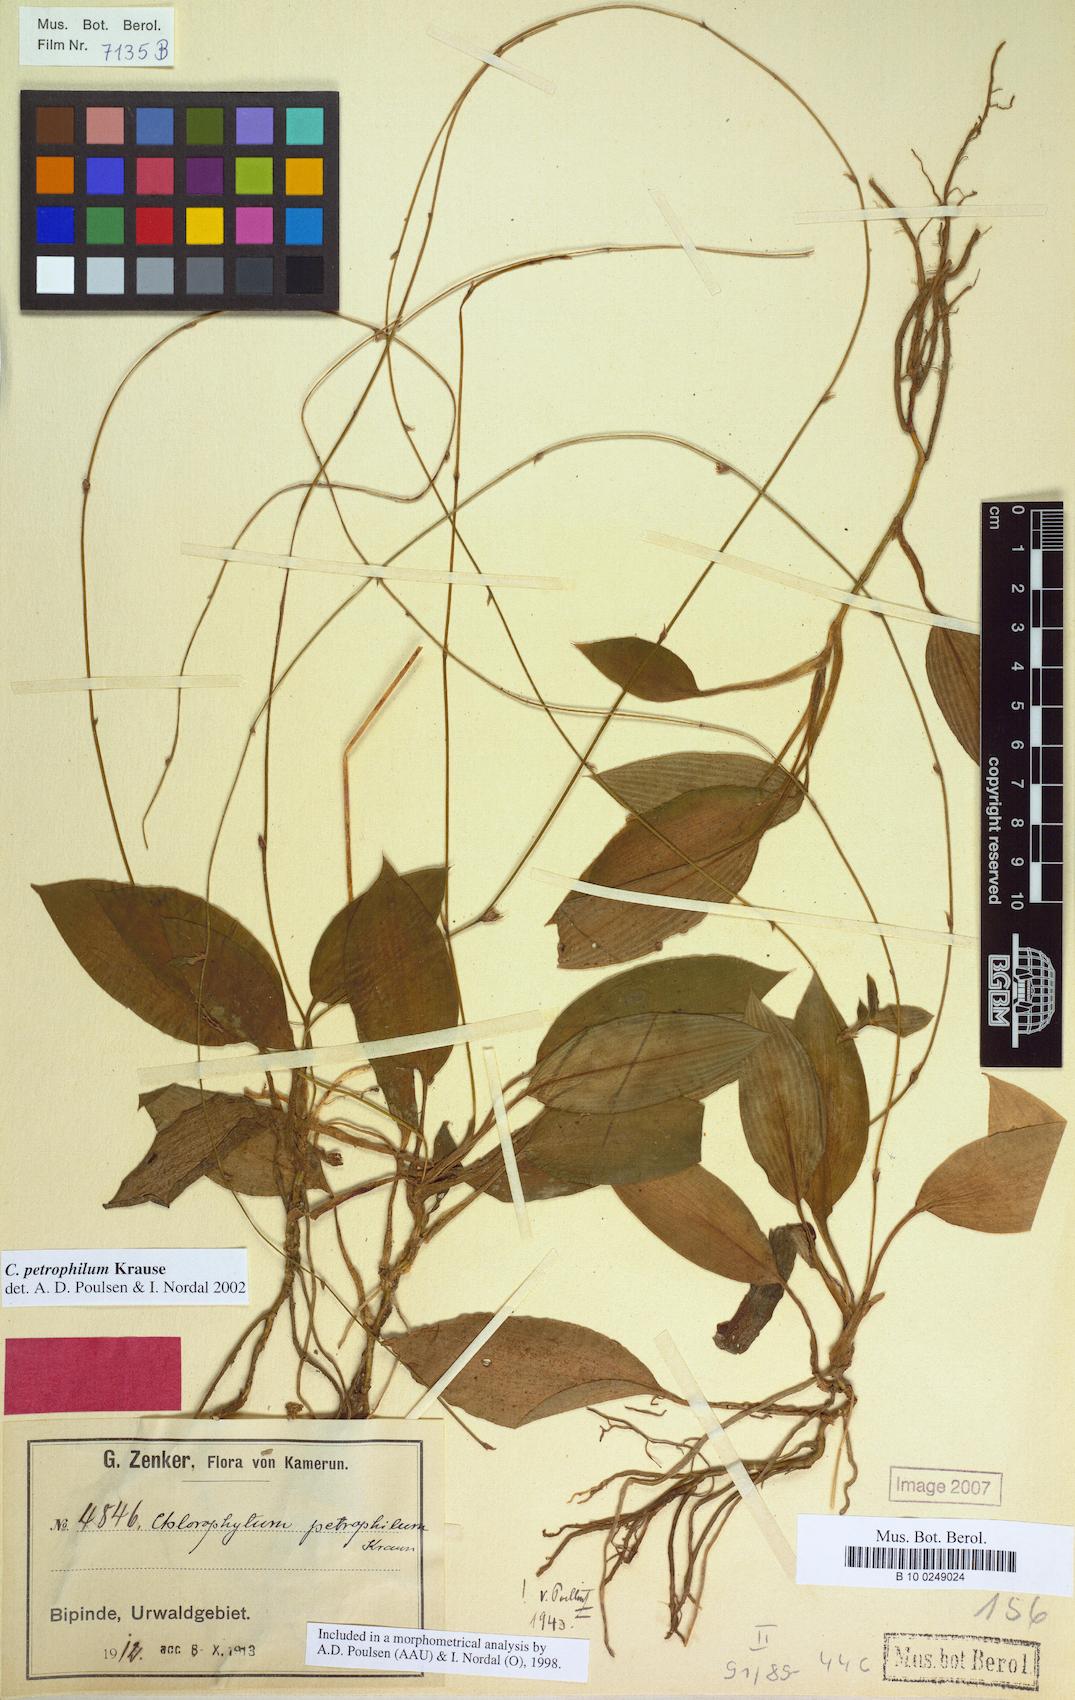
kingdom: Plantae
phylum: Tracheophyta
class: Liliopsida
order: Asparagales
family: Asparagaceae
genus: Chlorophytum
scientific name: Chlorophytum petrophilum
